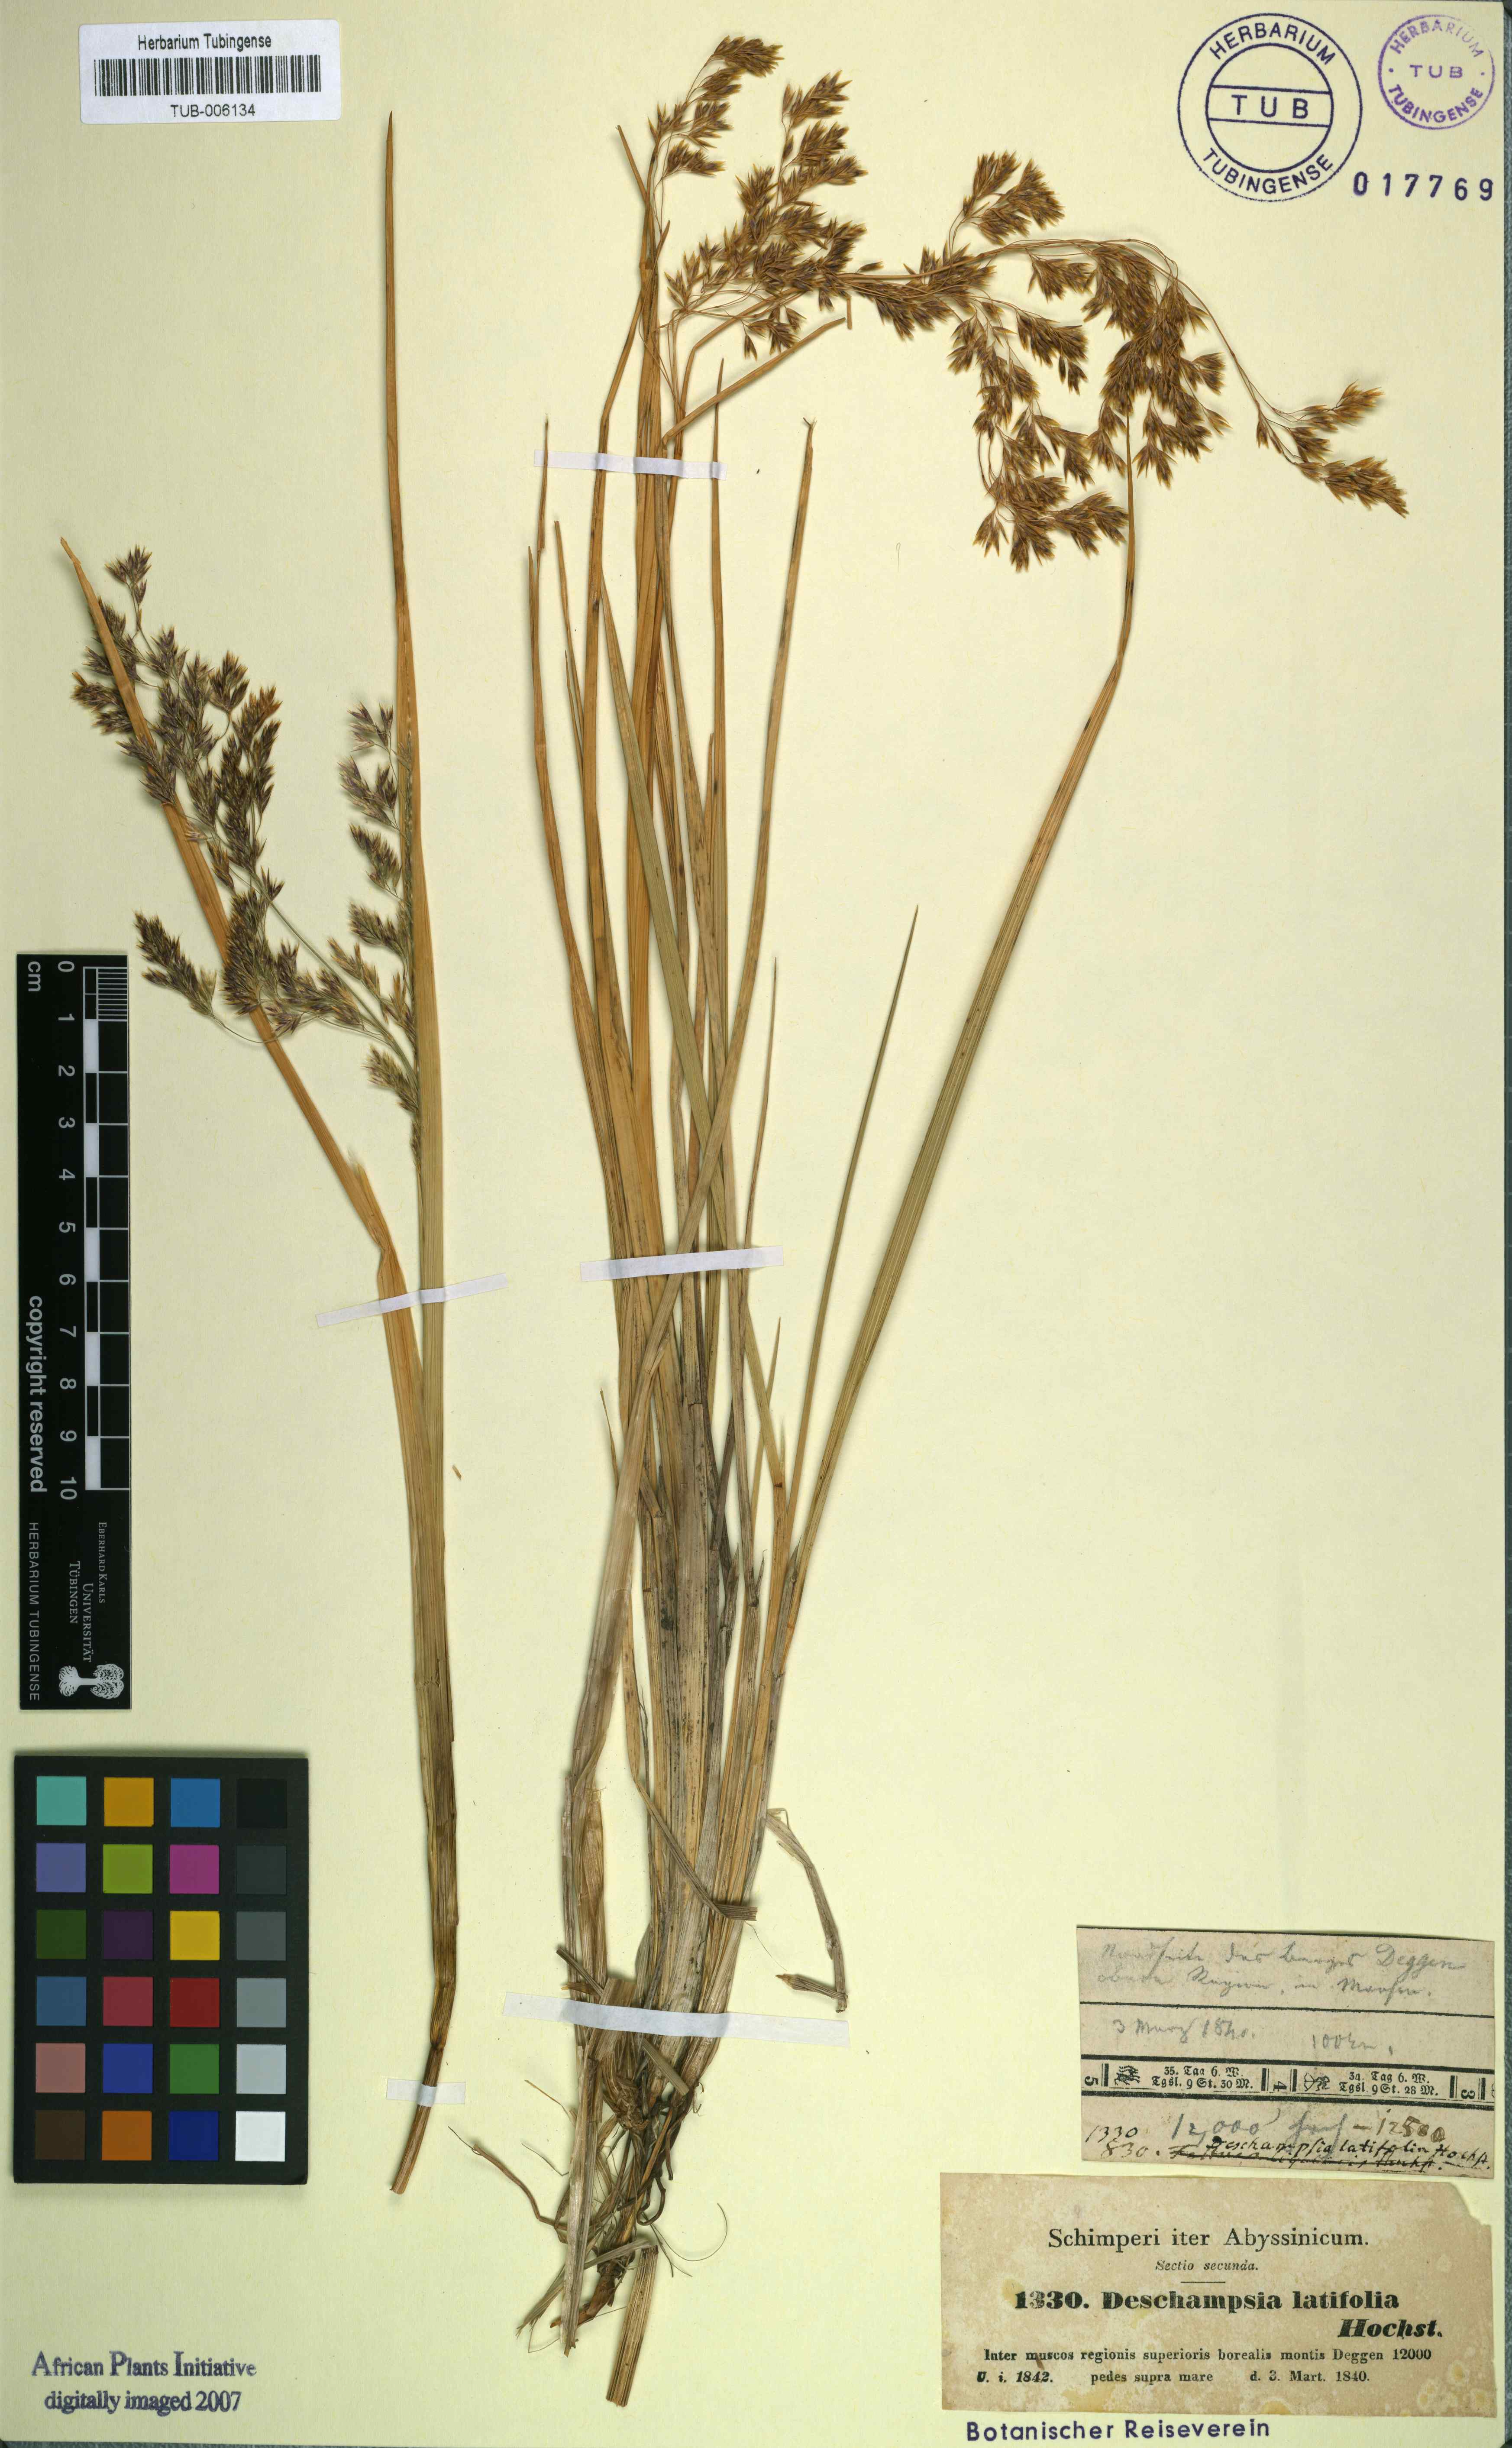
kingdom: Plantae
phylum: Tracheophyta
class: Liliopsida
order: Poales
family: Poaceae
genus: Deschampsia
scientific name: Deschampsia cespitosa
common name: Tufted hair-grass
